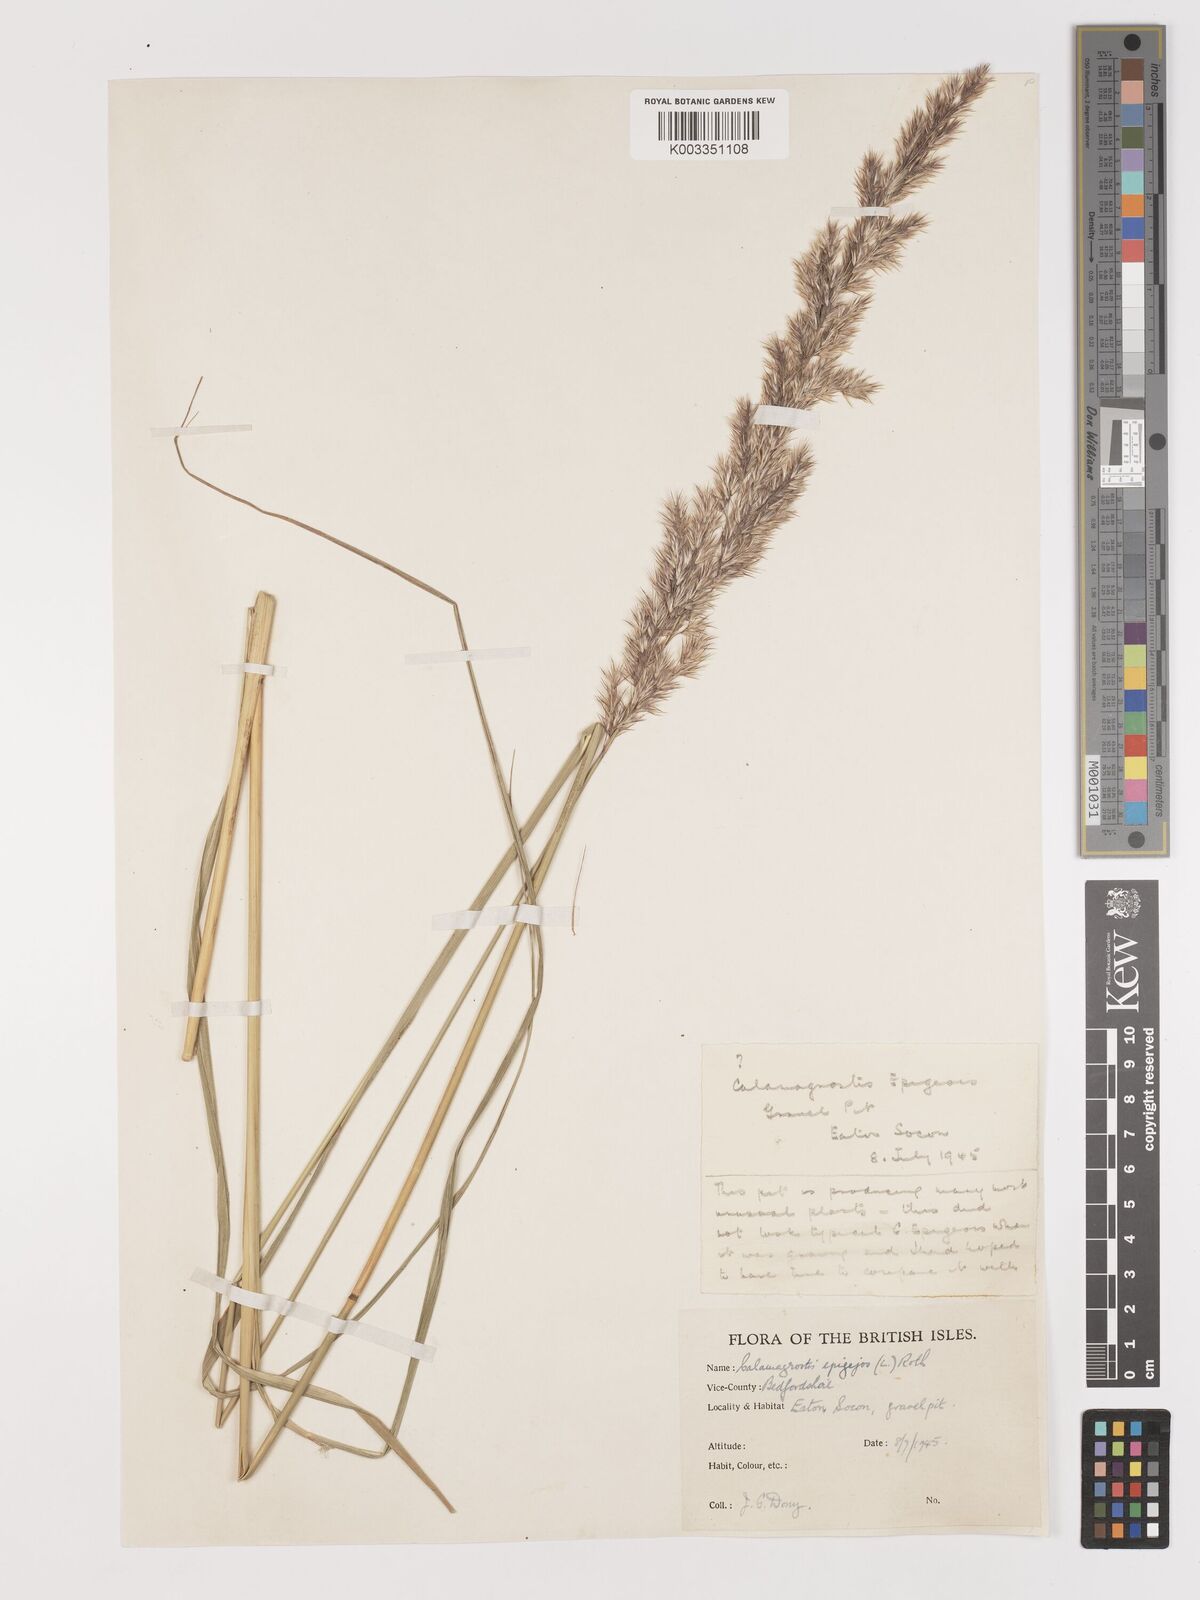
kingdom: Plantae
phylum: Tracheophyta
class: Liliopsida
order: Poales
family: Poaceae
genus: Calamagrostis
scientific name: Calamagrostis
